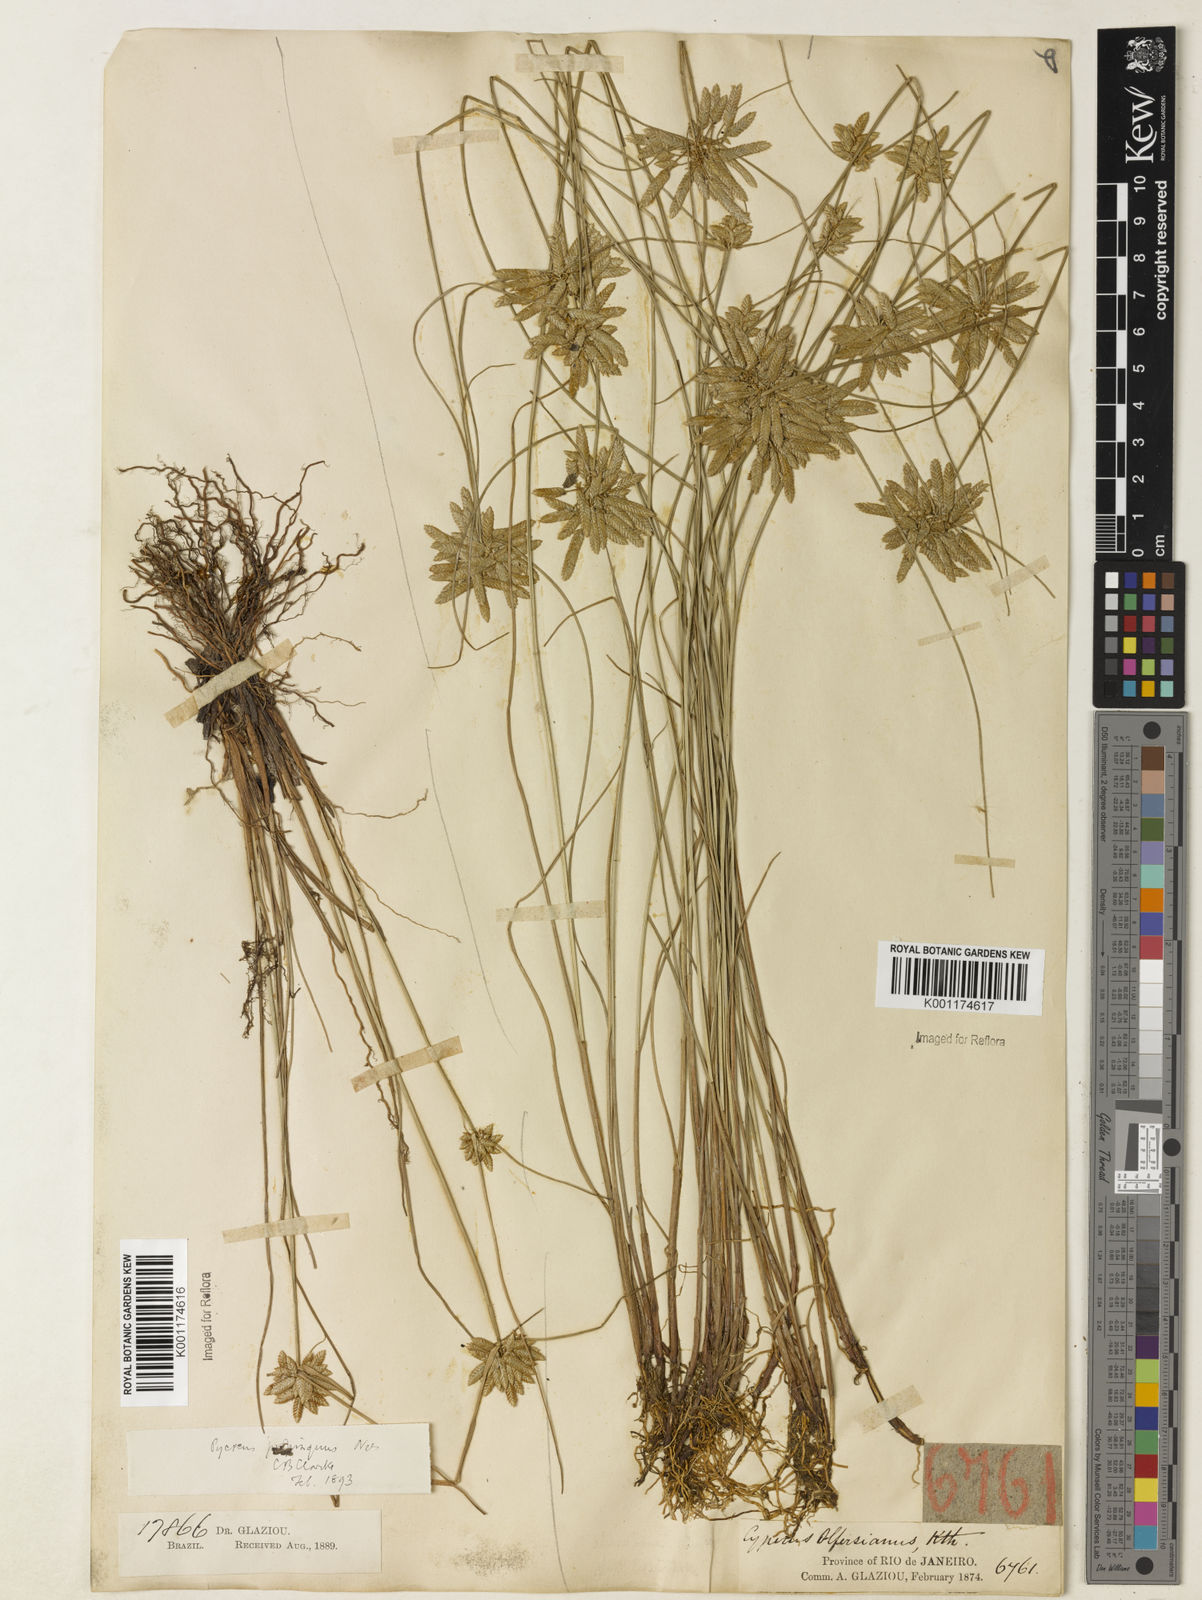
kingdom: Plantae
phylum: Tracheophyta
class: Liliopsida
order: Poales
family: Cyperaceae
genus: Cyperus
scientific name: Cyperus
